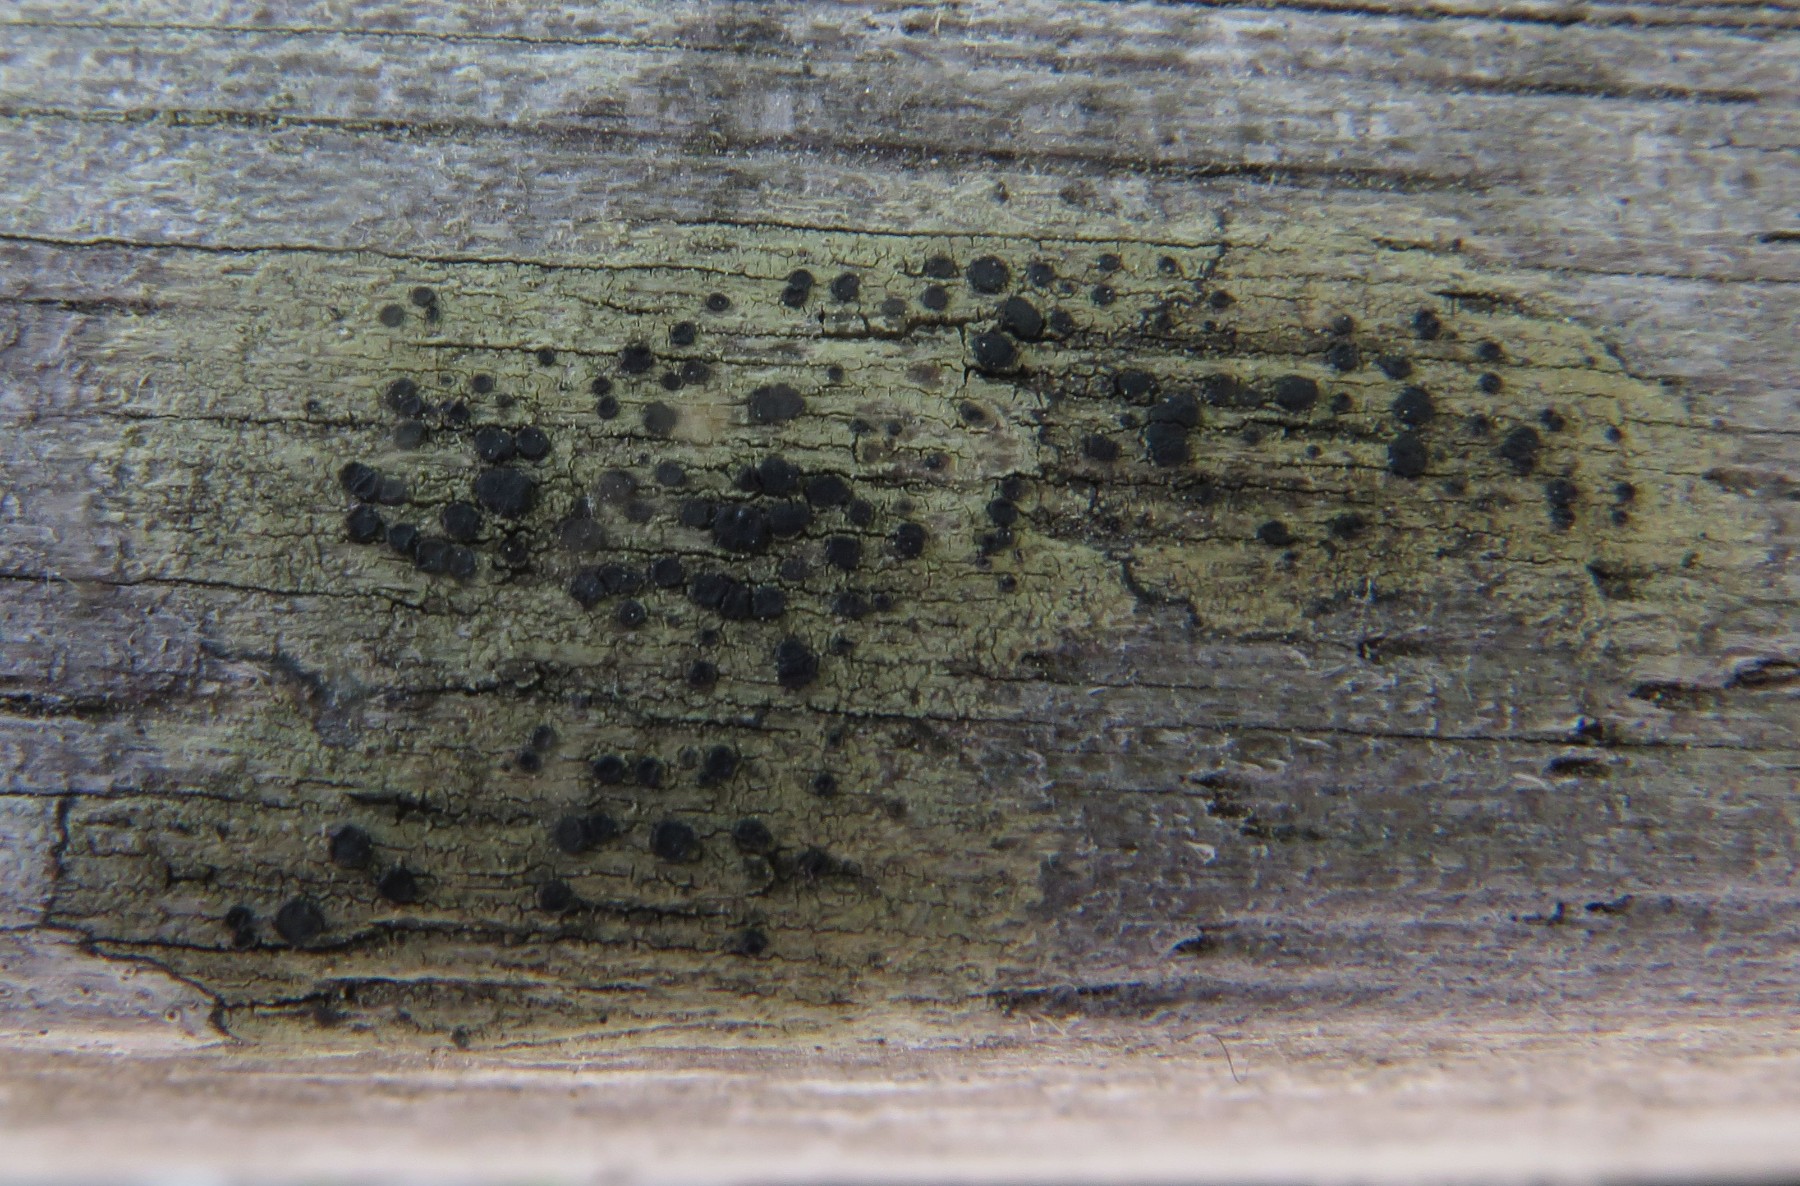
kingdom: Fungi
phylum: Ascomycota
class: Lecanoromycetes
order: Lecanorales
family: Lecanoraceae
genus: Lecidella
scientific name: Lecidella elaeochroma
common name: grågrøn skivelav
